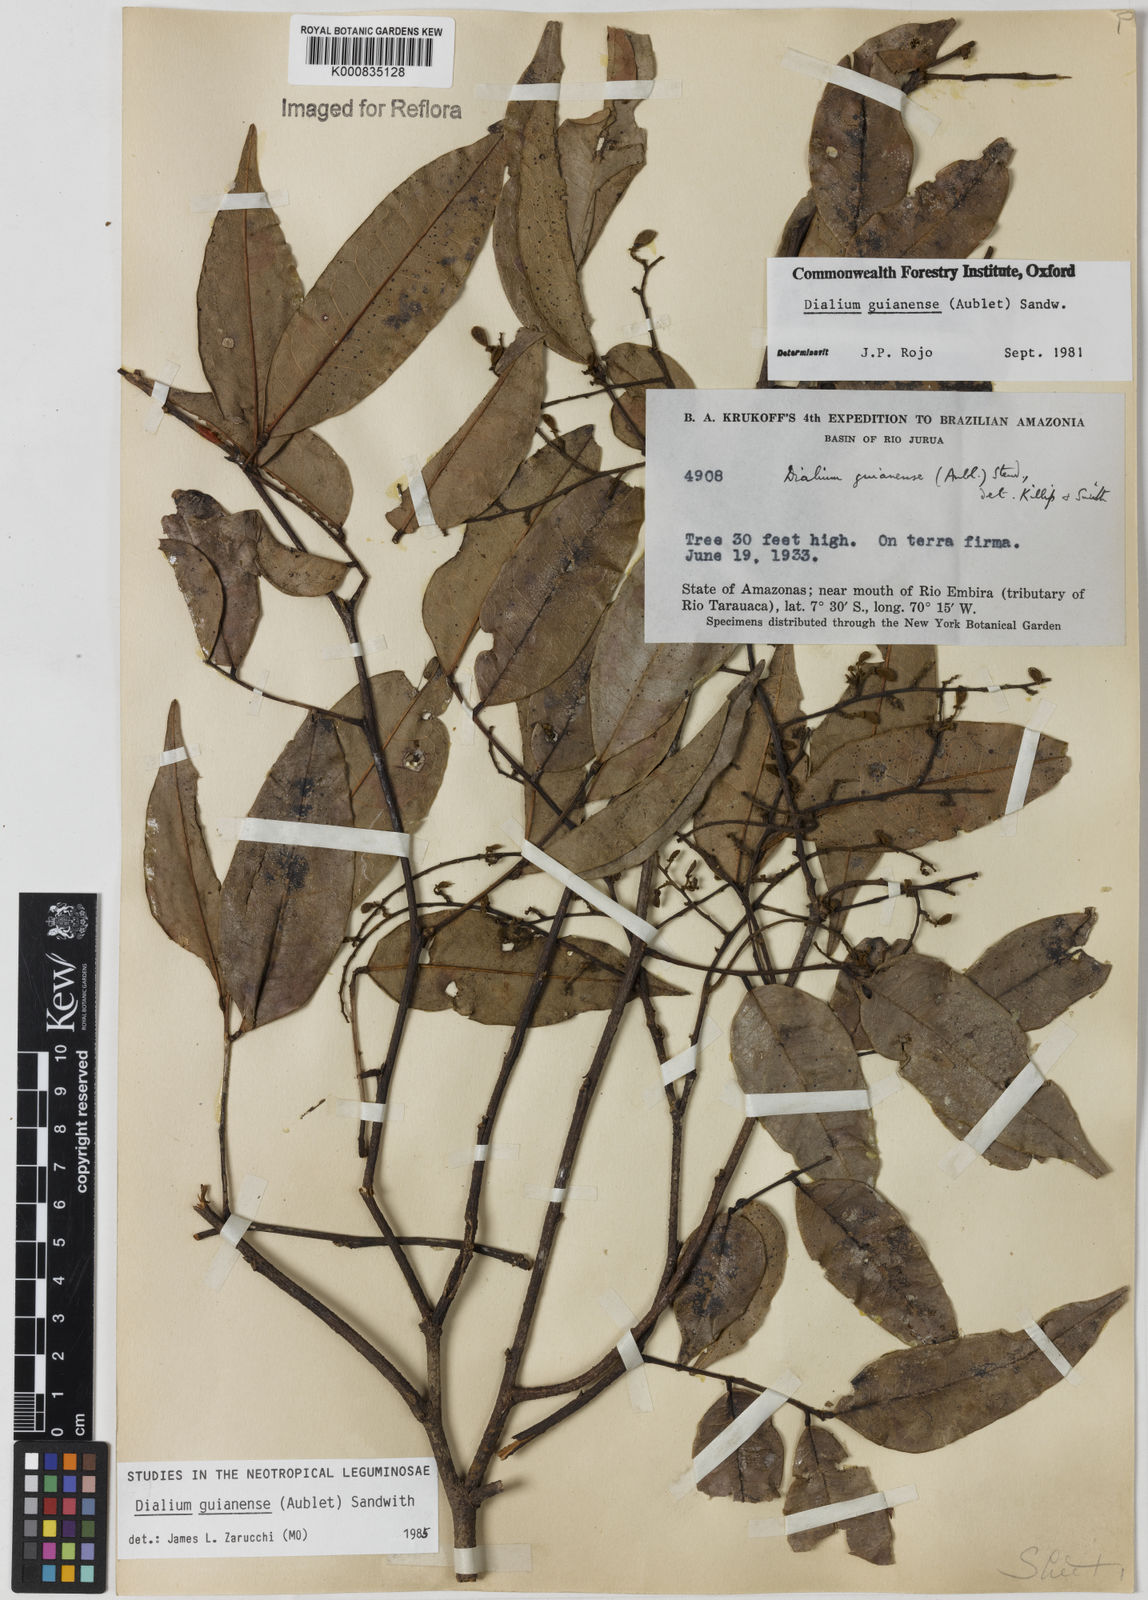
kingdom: Plantae
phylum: Tracheophyta
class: Magnoliopsida
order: Fabales
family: Fabaceae
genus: Dialium
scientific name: Dialium guianense
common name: Ironwood
